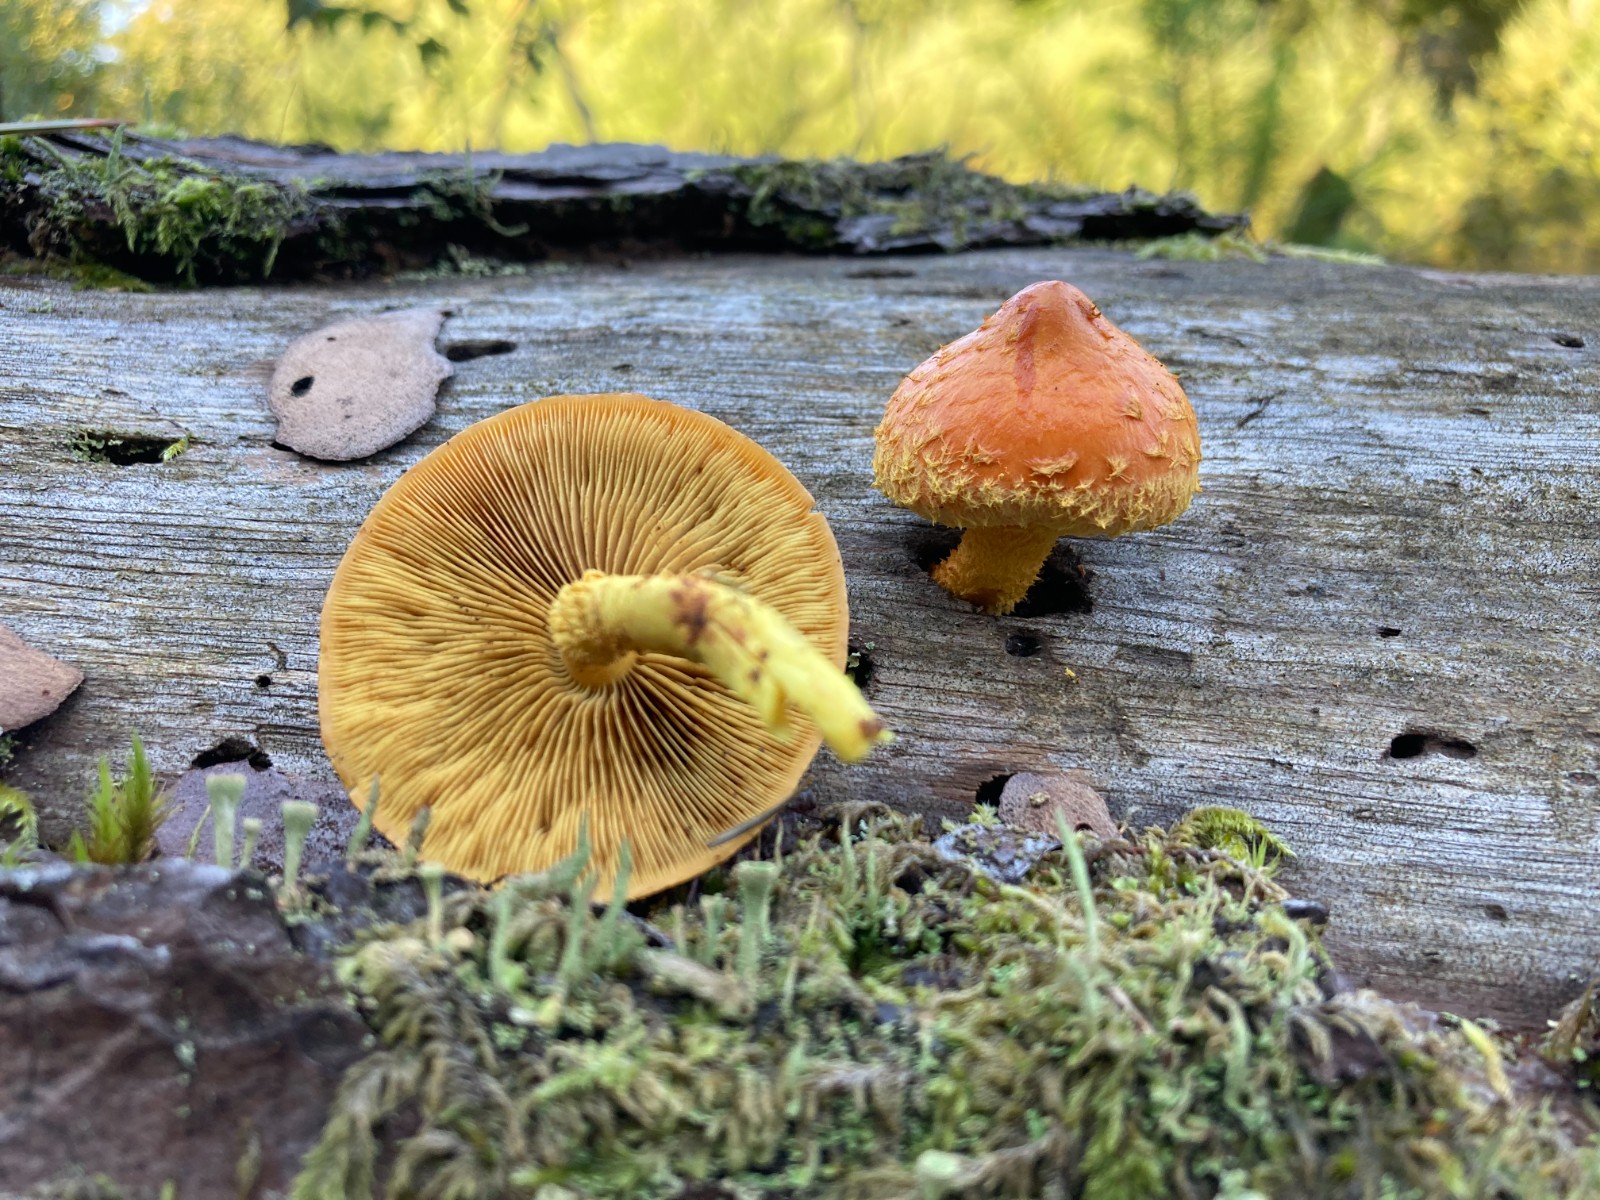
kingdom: Fungi
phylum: Basidiomycota
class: Agaricomycetes
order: Agaricales
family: Strophariaceae
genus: Pholiota
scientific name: Pholiota flammans
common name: flamme-skælhat
